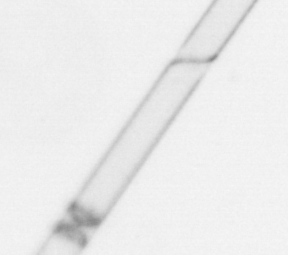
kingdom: Chromista
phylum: Ochrophyta
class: Bacillariophyceae
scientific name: Bacillariophyceae
